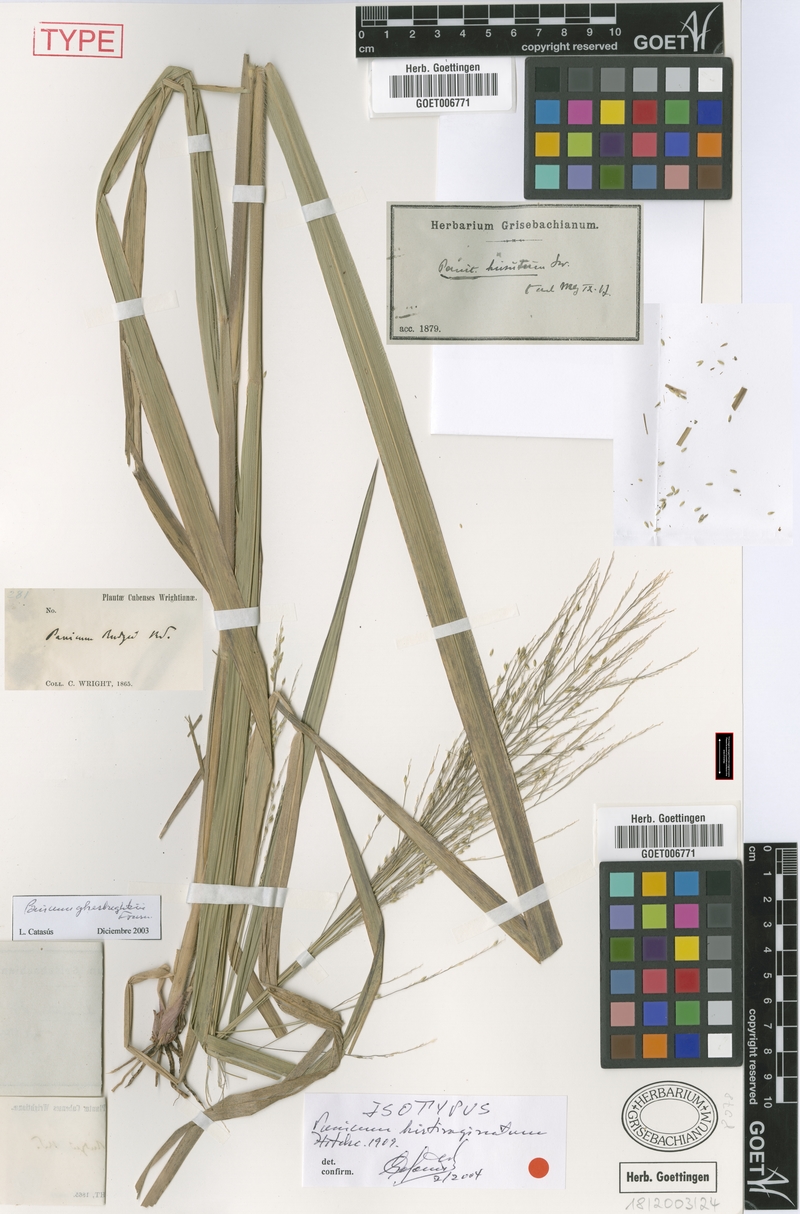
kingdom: Plantae
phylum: Tracheophyta
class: Liliopsida
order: Poales
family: Poaceae
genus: Panicum
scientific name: Panicum ghiesbreghtii
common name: Ghiesbreght's witchgrass
